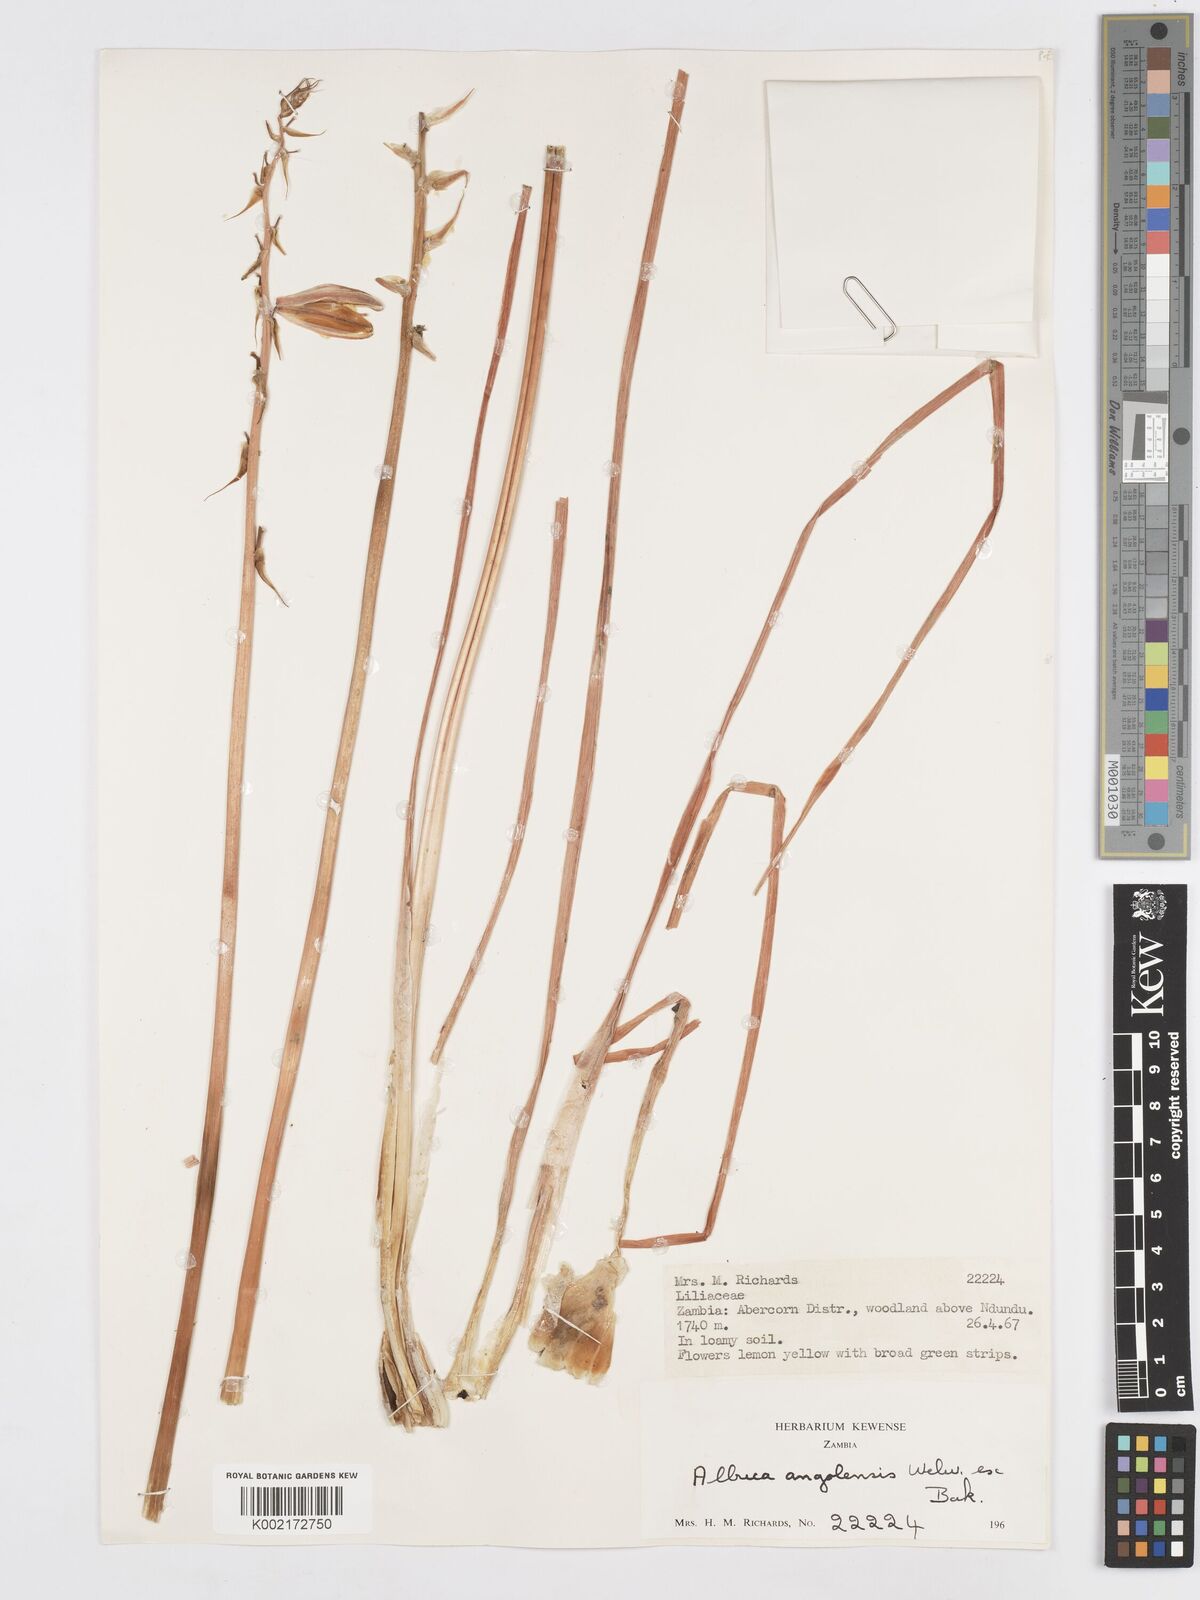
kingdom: Plantae
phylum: Tracheophyta
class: Liliopsida
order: Asparagales
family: Asparagaceae
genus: Albuca
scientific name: Albuca abyssinica
